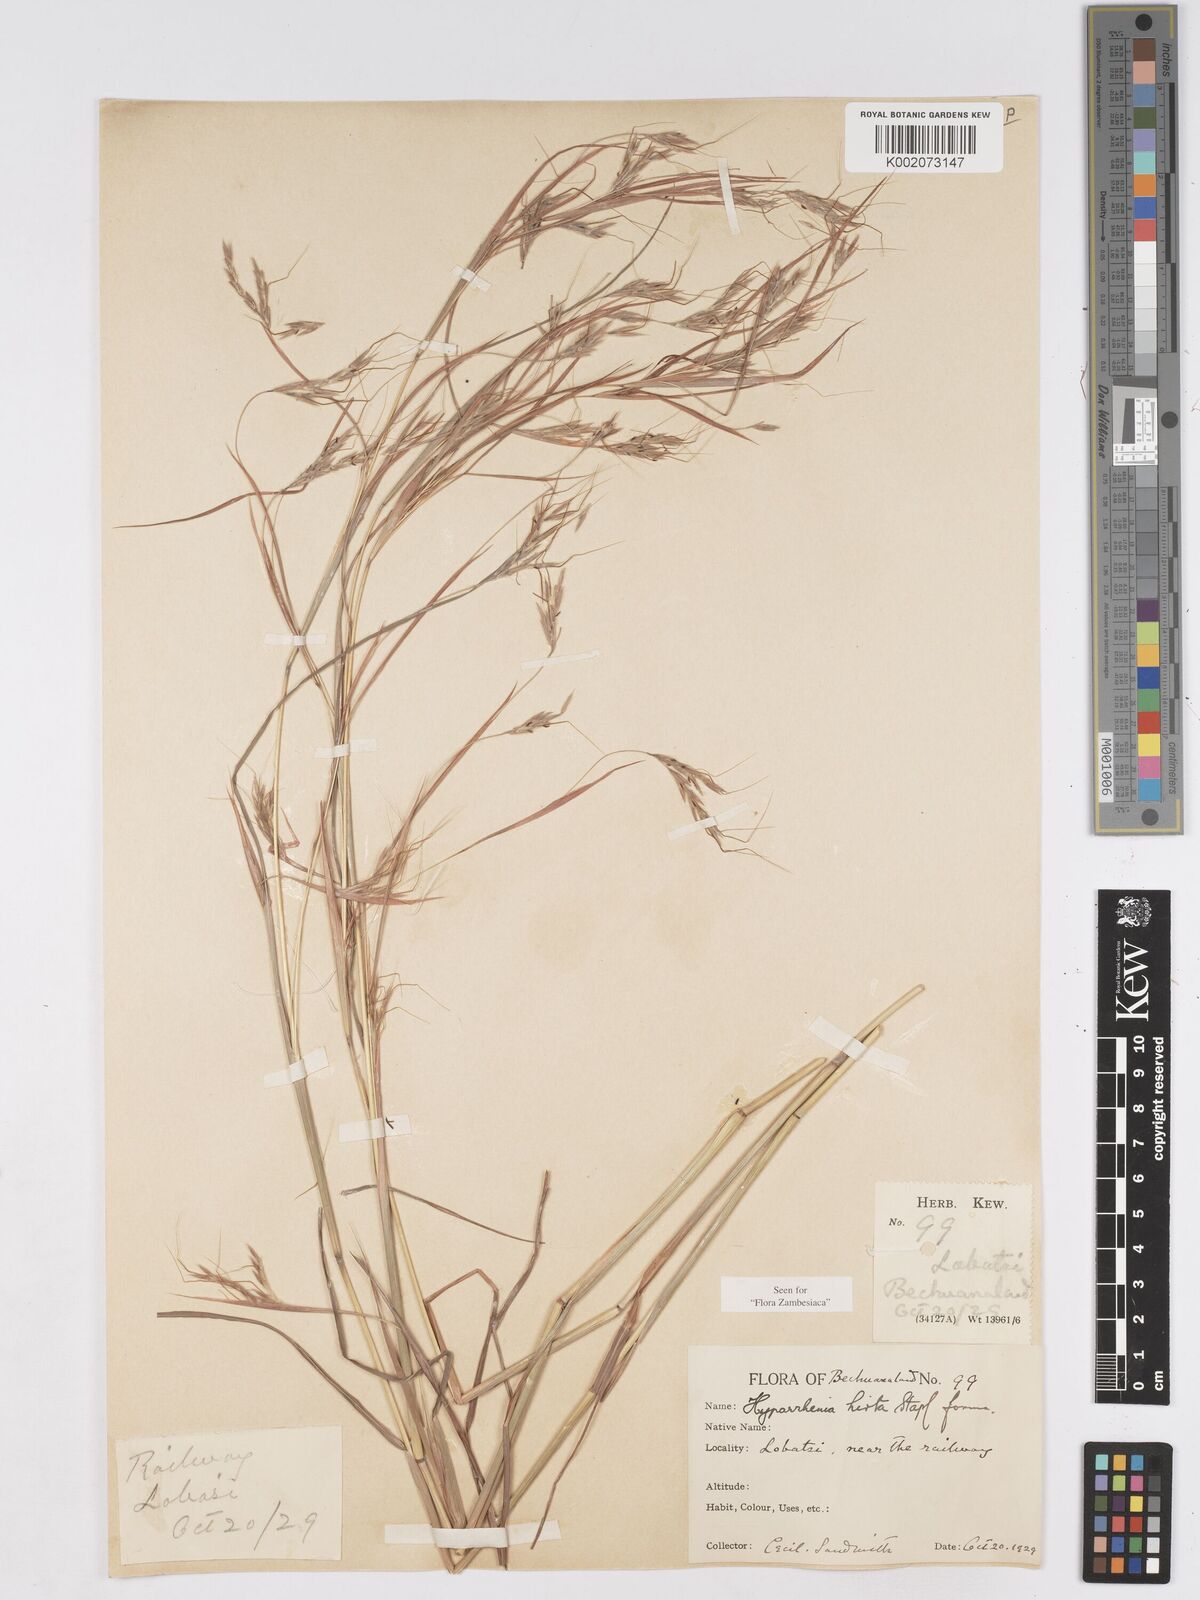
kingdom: Plantae
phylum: Tracheophyta
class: Liliopsida
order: Poales
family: Poaceae
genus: Hyparrhenia
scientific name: Hyparrhenia hirta
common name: Thatching grass
